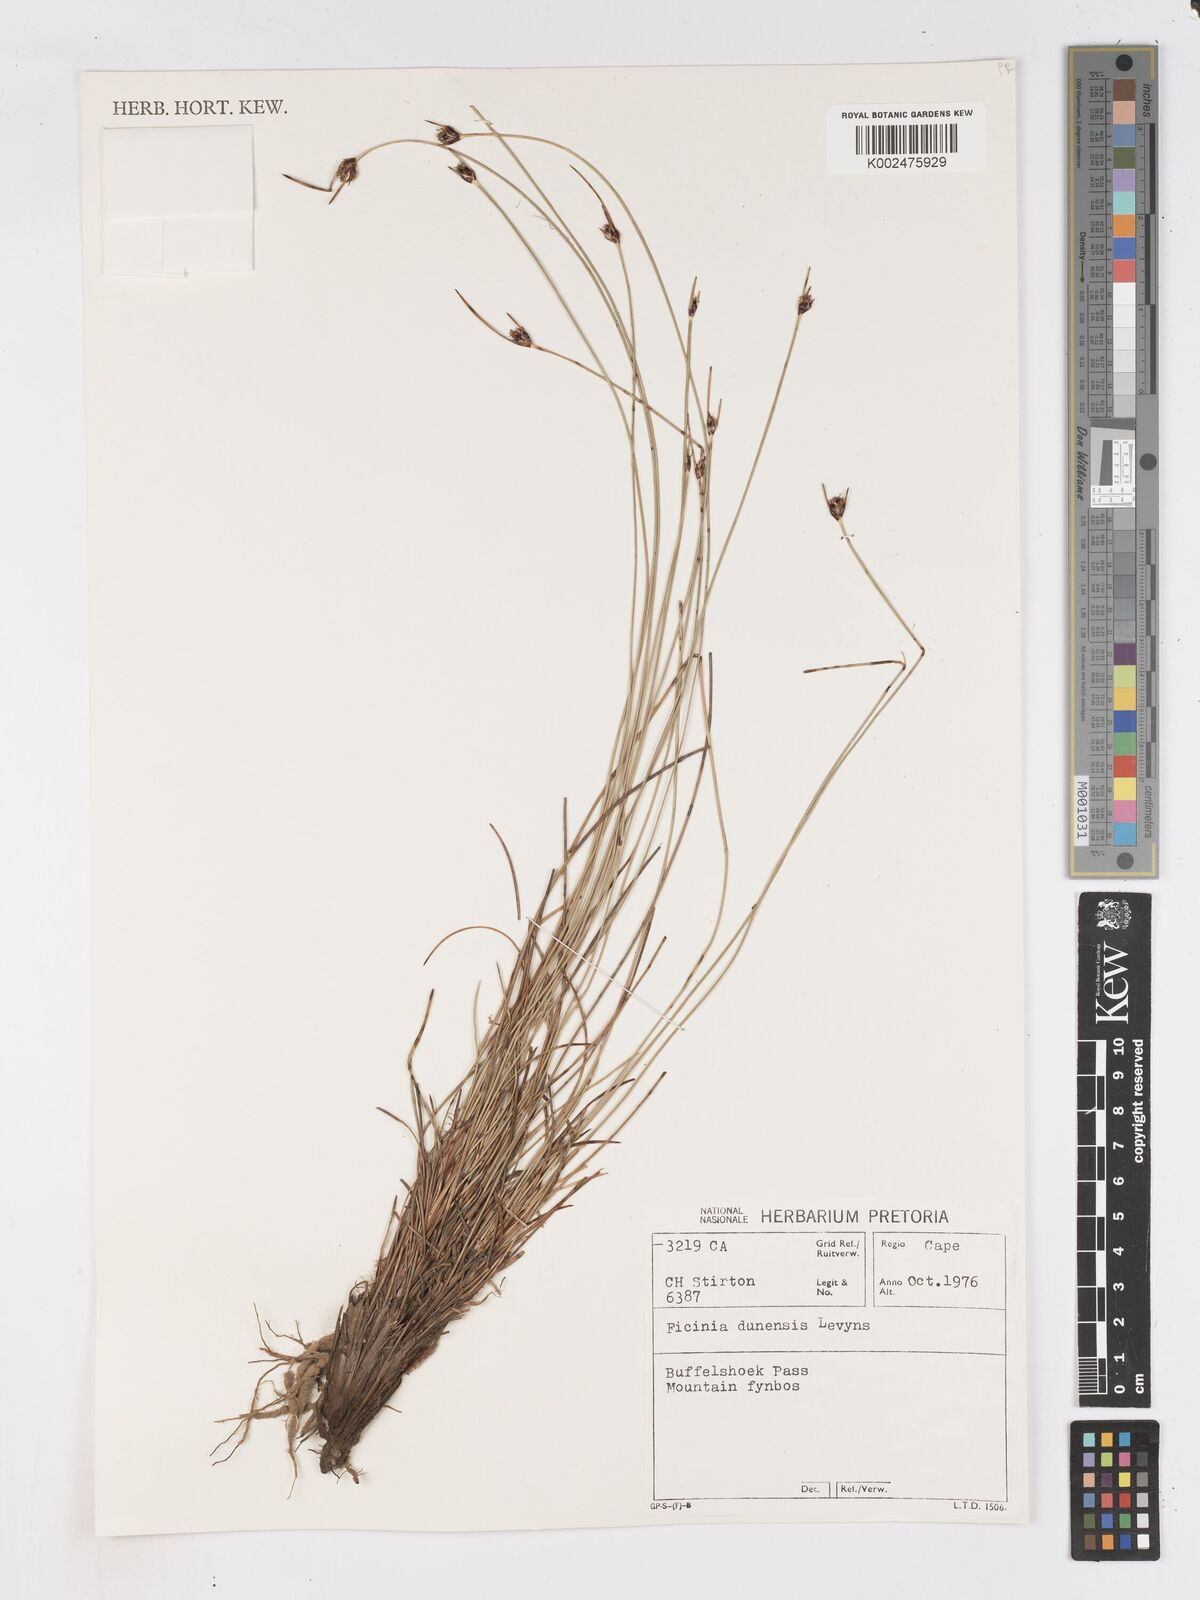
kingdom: Plantae
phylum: Tracheophyta
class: Liliopsida
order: Poales
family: Cyperaceae
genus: Ficinia
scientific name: Ficinia dunensis
